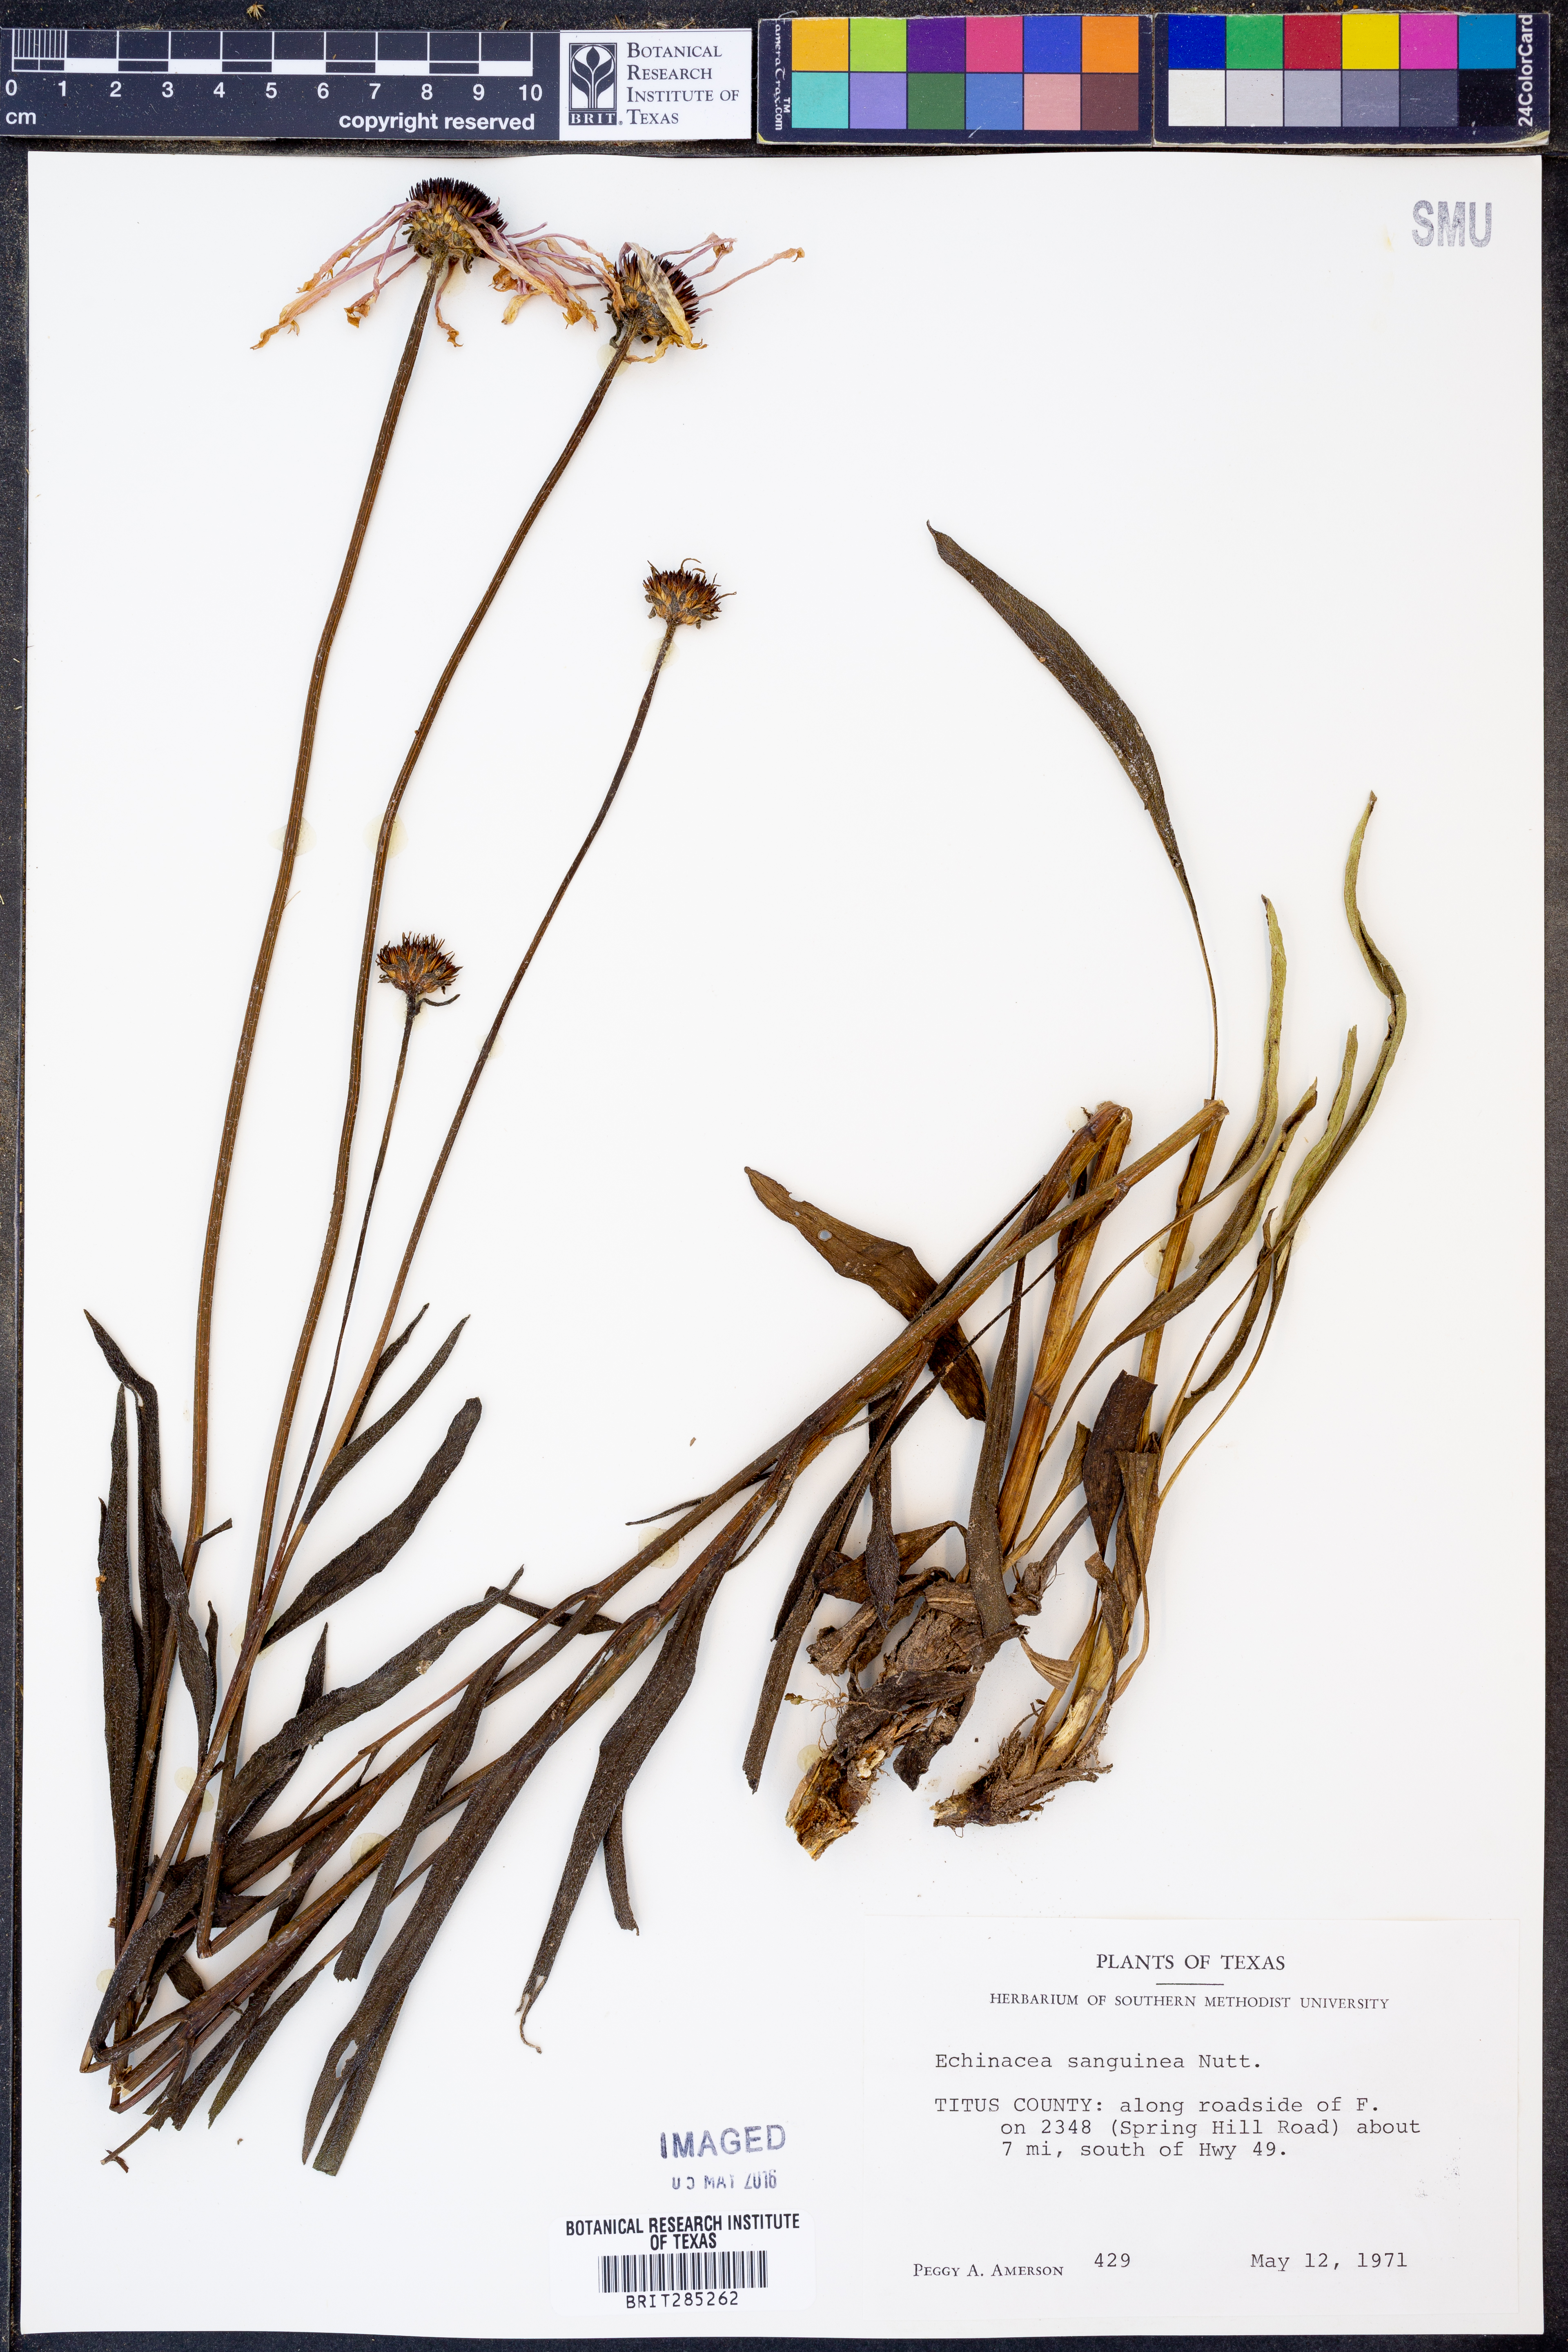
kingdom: Plantae
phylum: Tracheophyta
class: Magnoliopsida
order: Asterales
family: Asteraceae
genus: Echinacea
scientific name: Echinacea sanguinea
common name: Sanguine purple-coneflower
